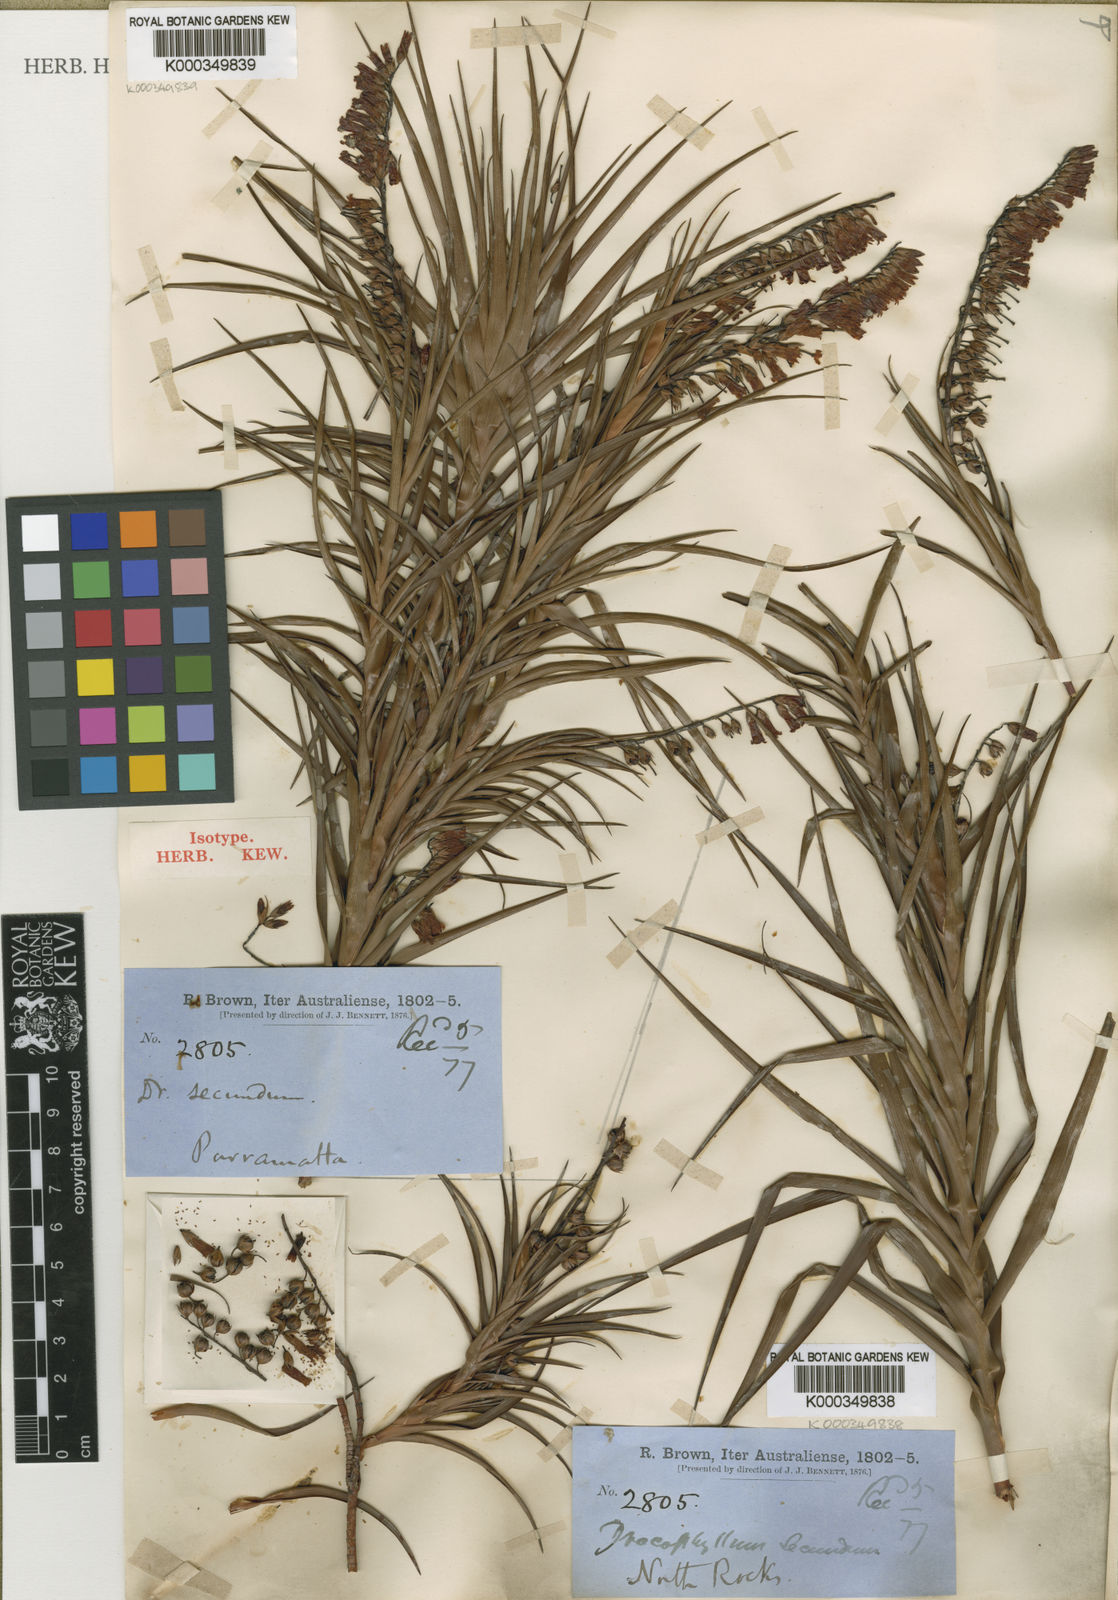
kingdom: Plantae
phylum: Tracheophyta
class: Magnoliopsida
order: Ericales
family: Ericaceae
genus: Dracophyllum
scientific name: Dracophyllum secundum
